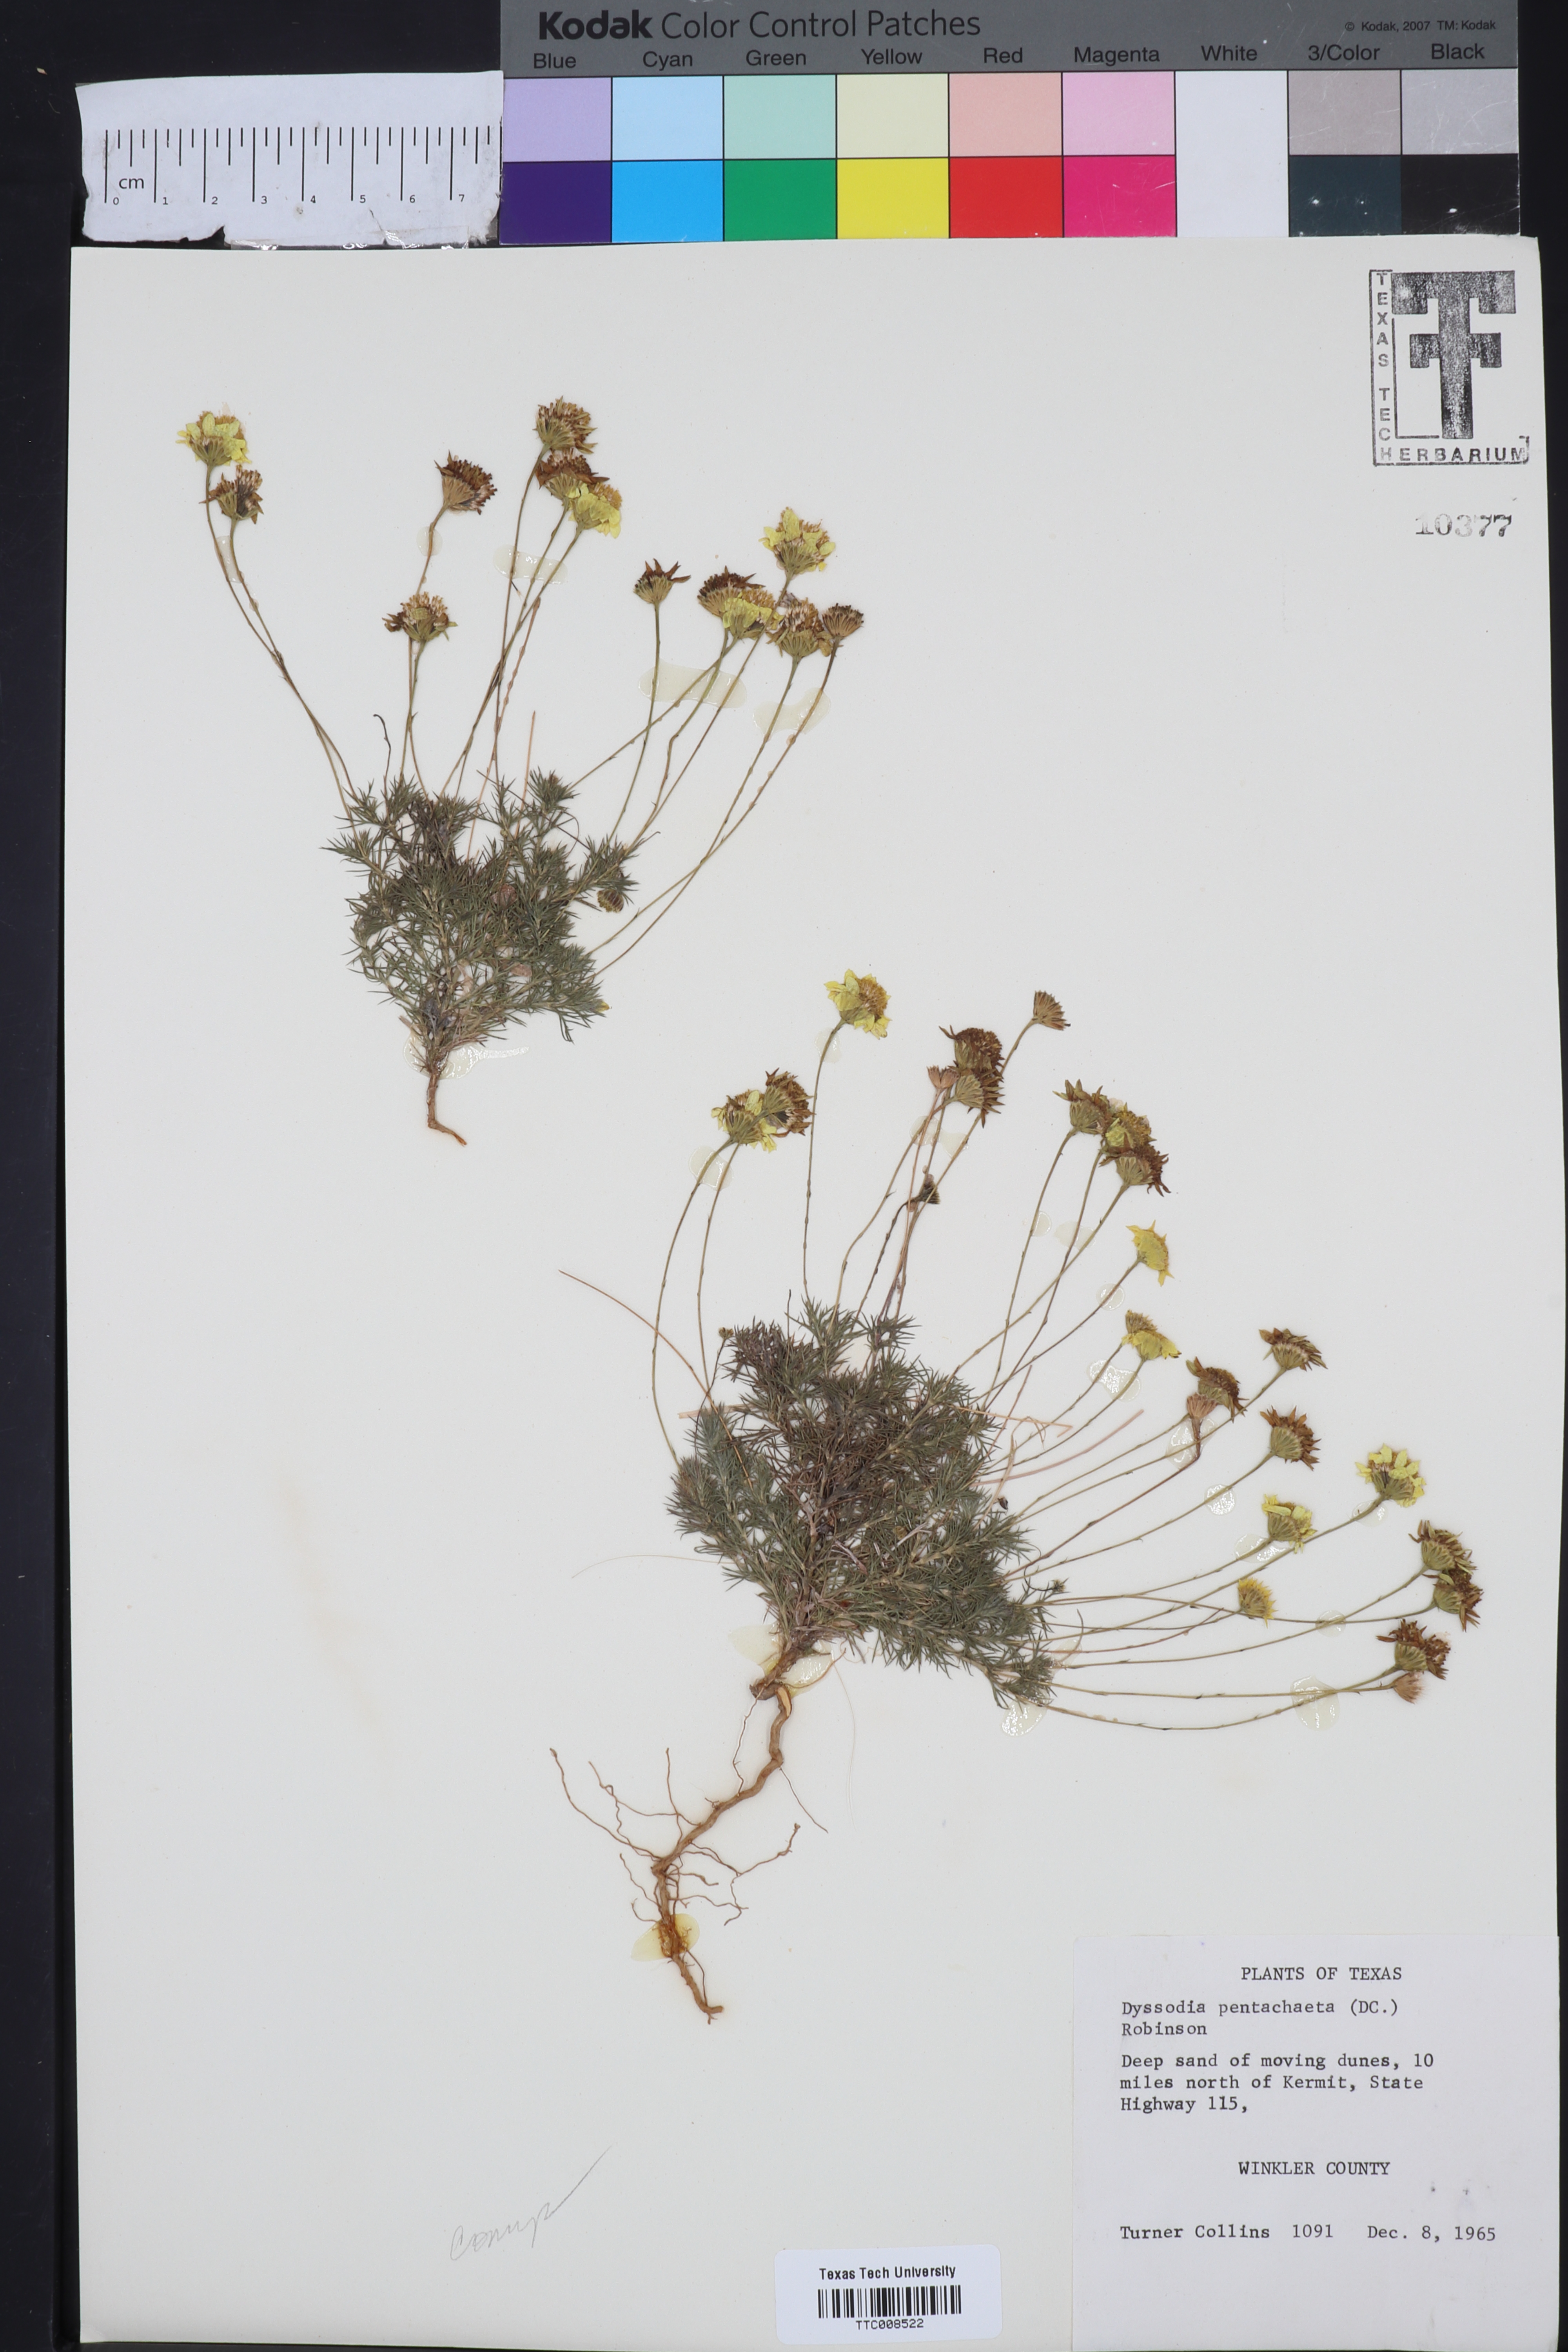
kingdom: Plantae
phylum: Tracheophyta
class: Magnoliopsida
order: Asterales
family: Asteraceae
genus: Thymophylla
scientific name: Thymophylla pentachaeta
